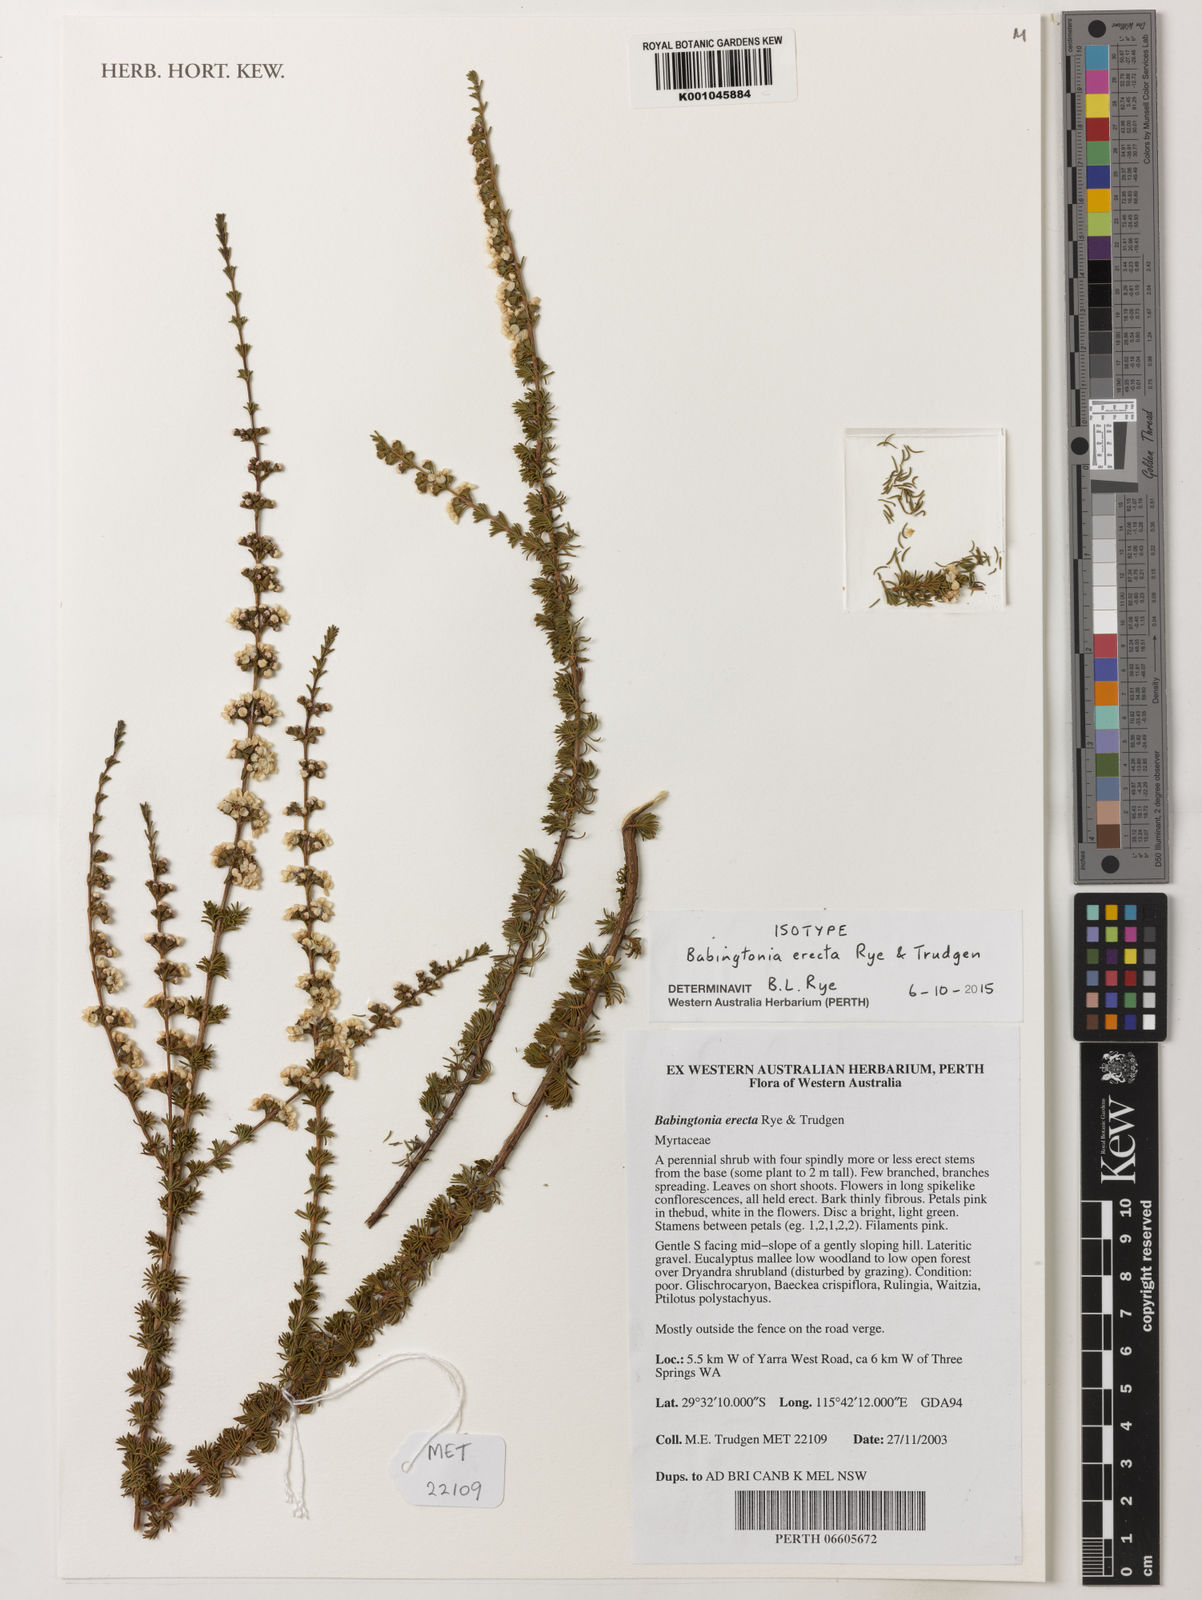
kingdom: Plantae
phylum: Tracheophyta
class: Magnoliopsida
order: Myrtales
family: Myrtaceae
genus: Babingtonia
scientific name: Babingtonia
